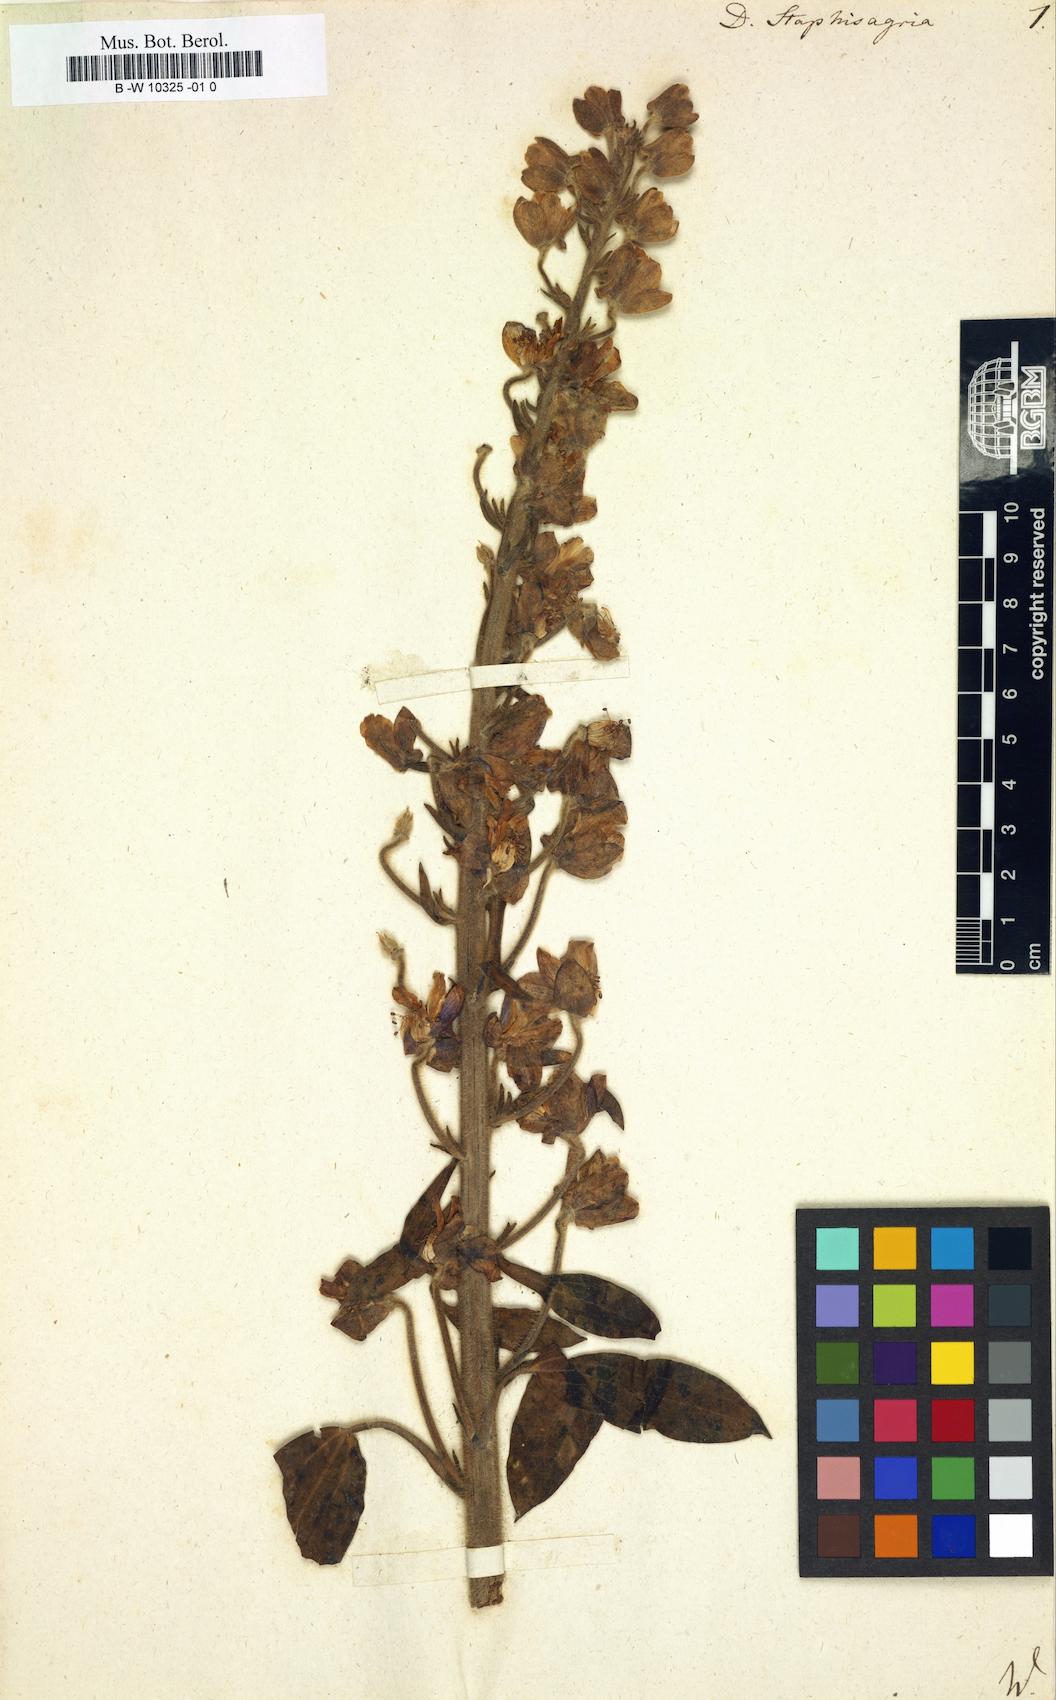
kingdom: Plantae
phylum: Tracheophyta
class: Magnoliopsida
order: Ranunculales
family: Ranunculaceae
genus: Staphisagria
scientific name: Staphisagria macrosperma
